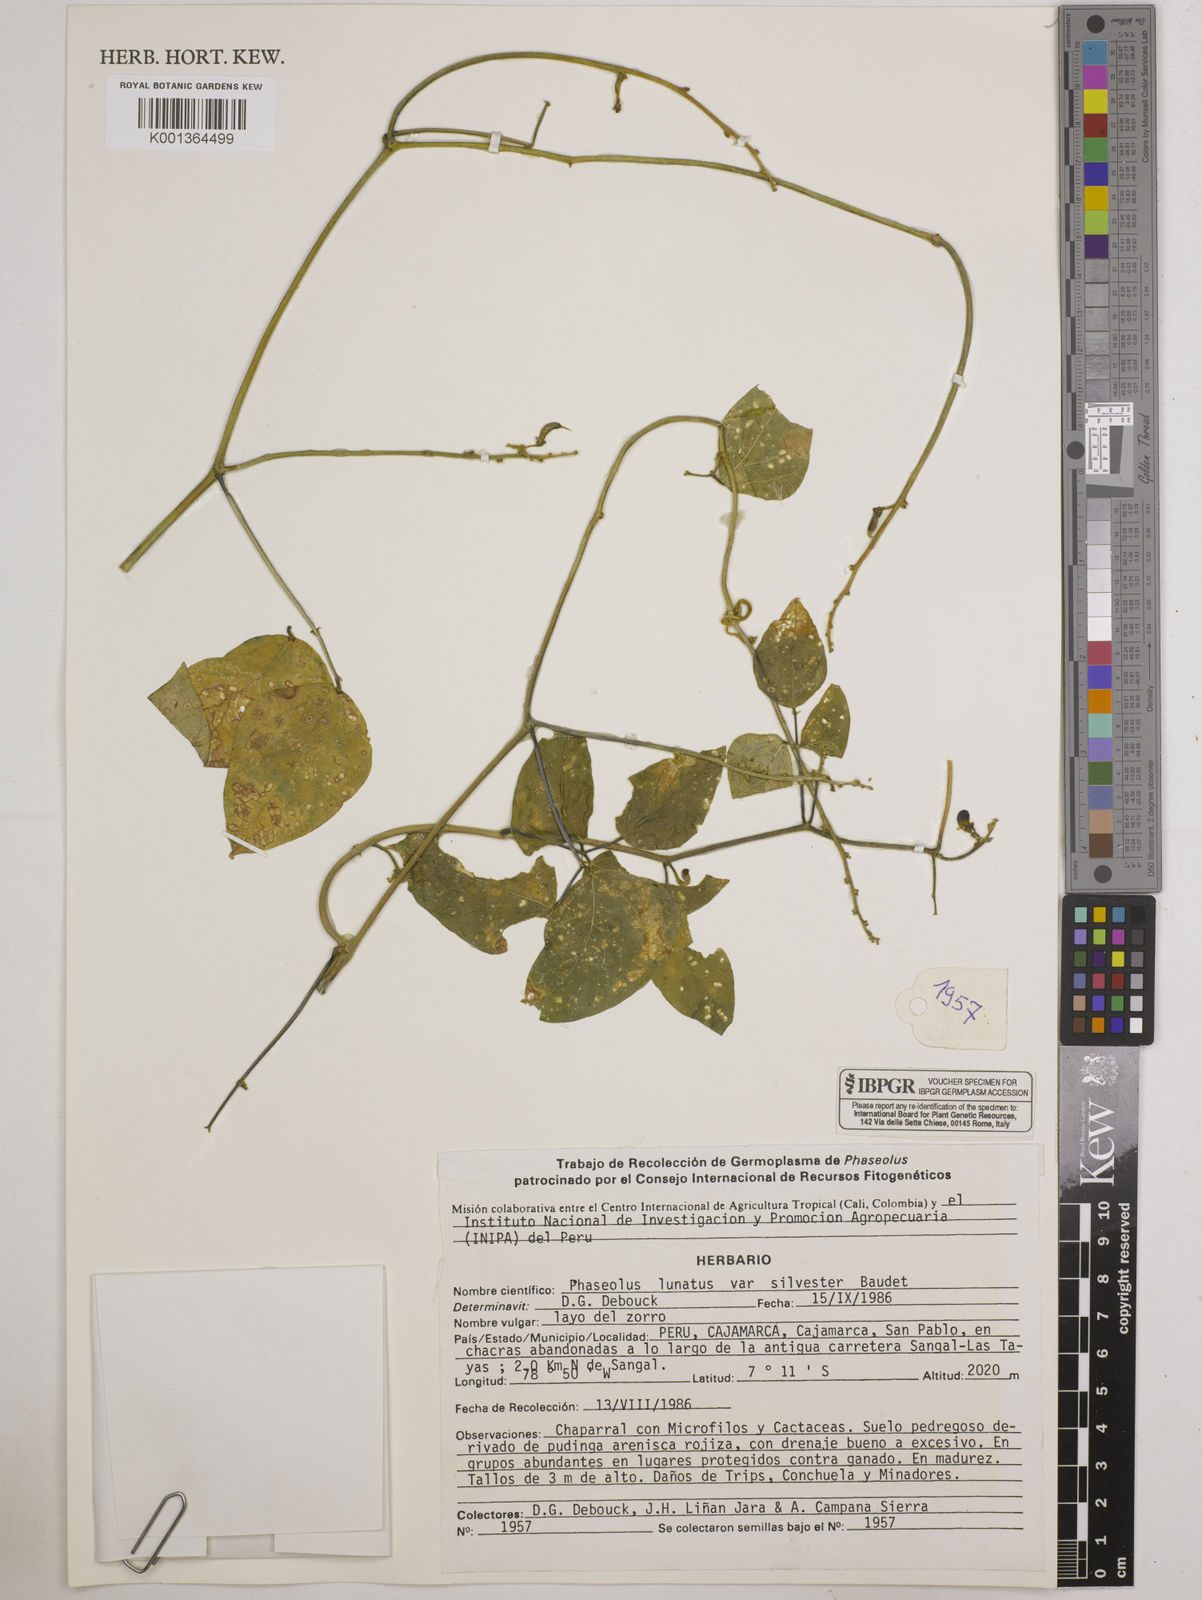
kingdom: Plantae
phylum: Tracheophyta
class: Magnoliopsida
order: Fabales
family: Fabaceae
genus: Phaseolus
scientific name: Phaseolus lunatus
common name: Sieva bean
